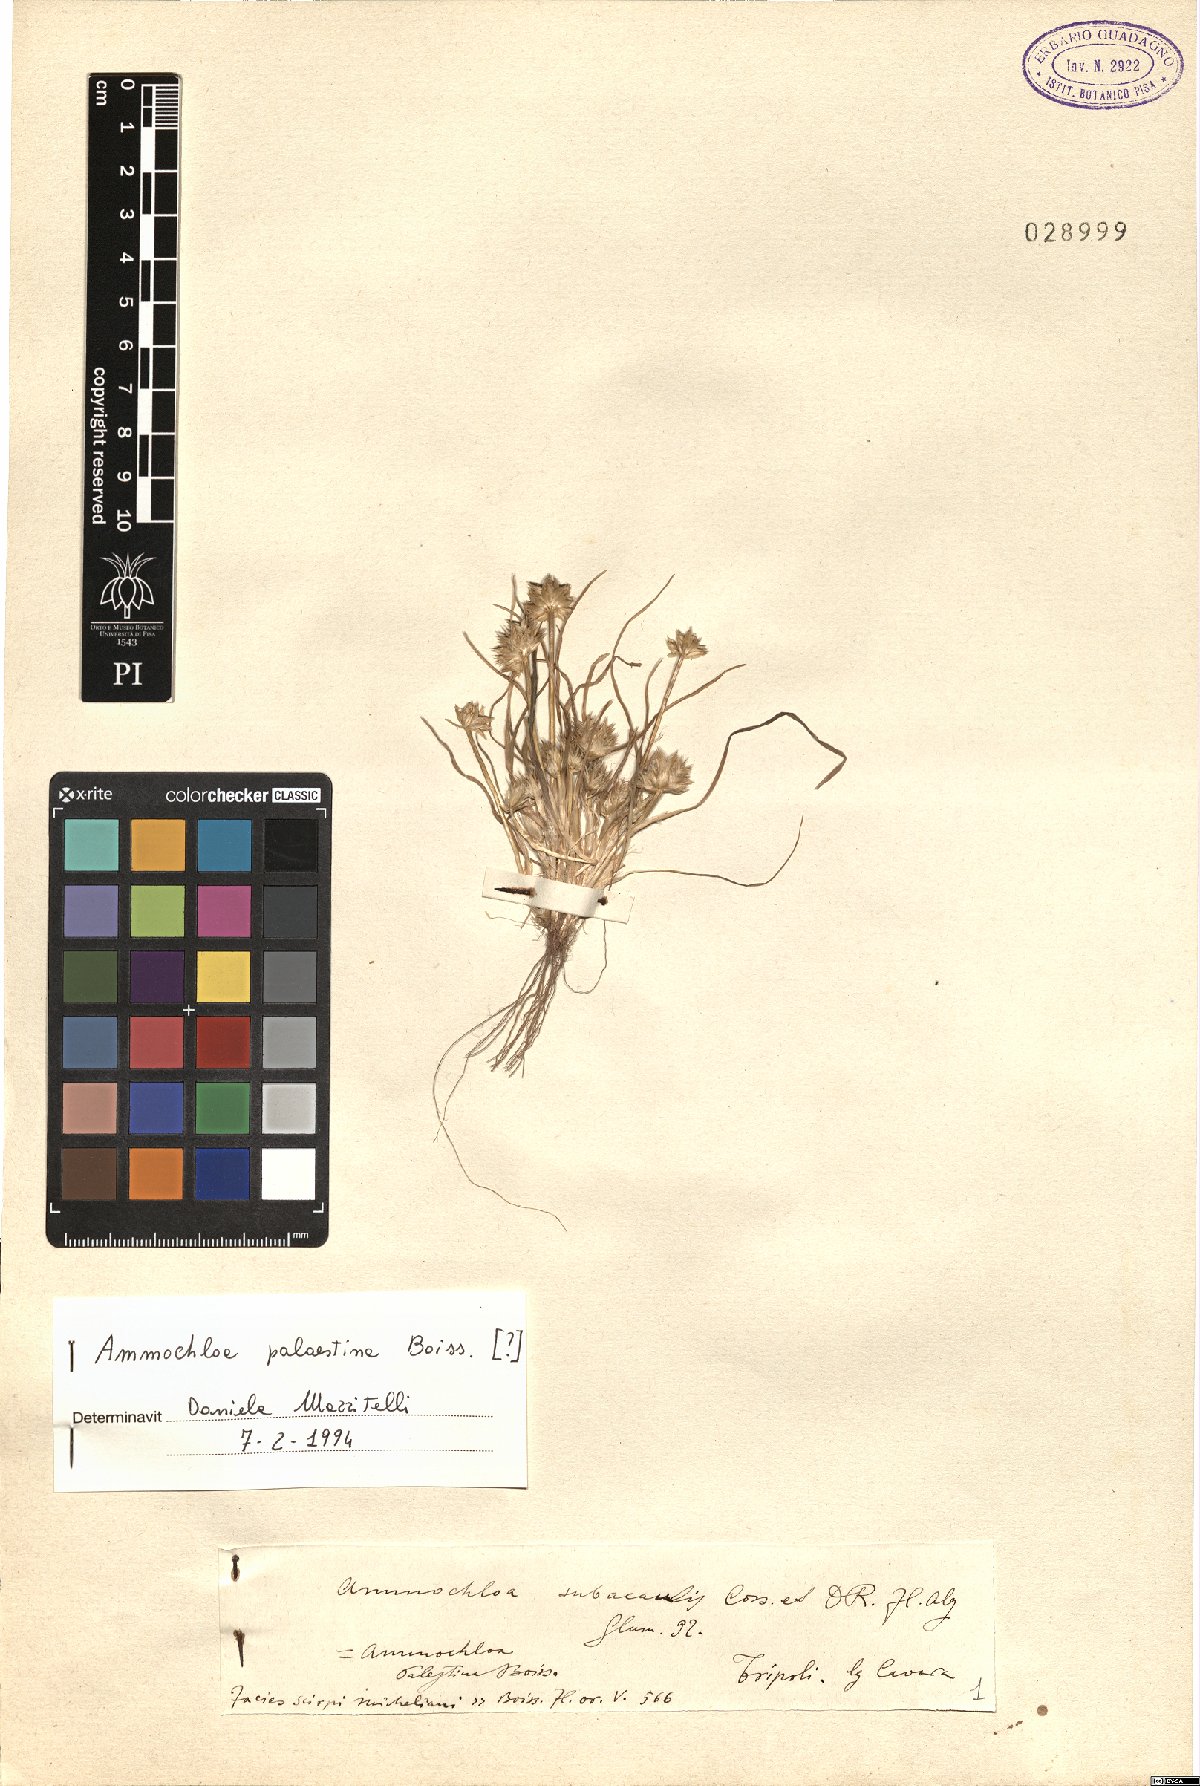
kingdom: Plantae
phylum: Tracheophyta
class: Liliopsida
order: Poales
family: Poaceae
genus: Ammochloa
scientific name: Ammochloa palaestina
